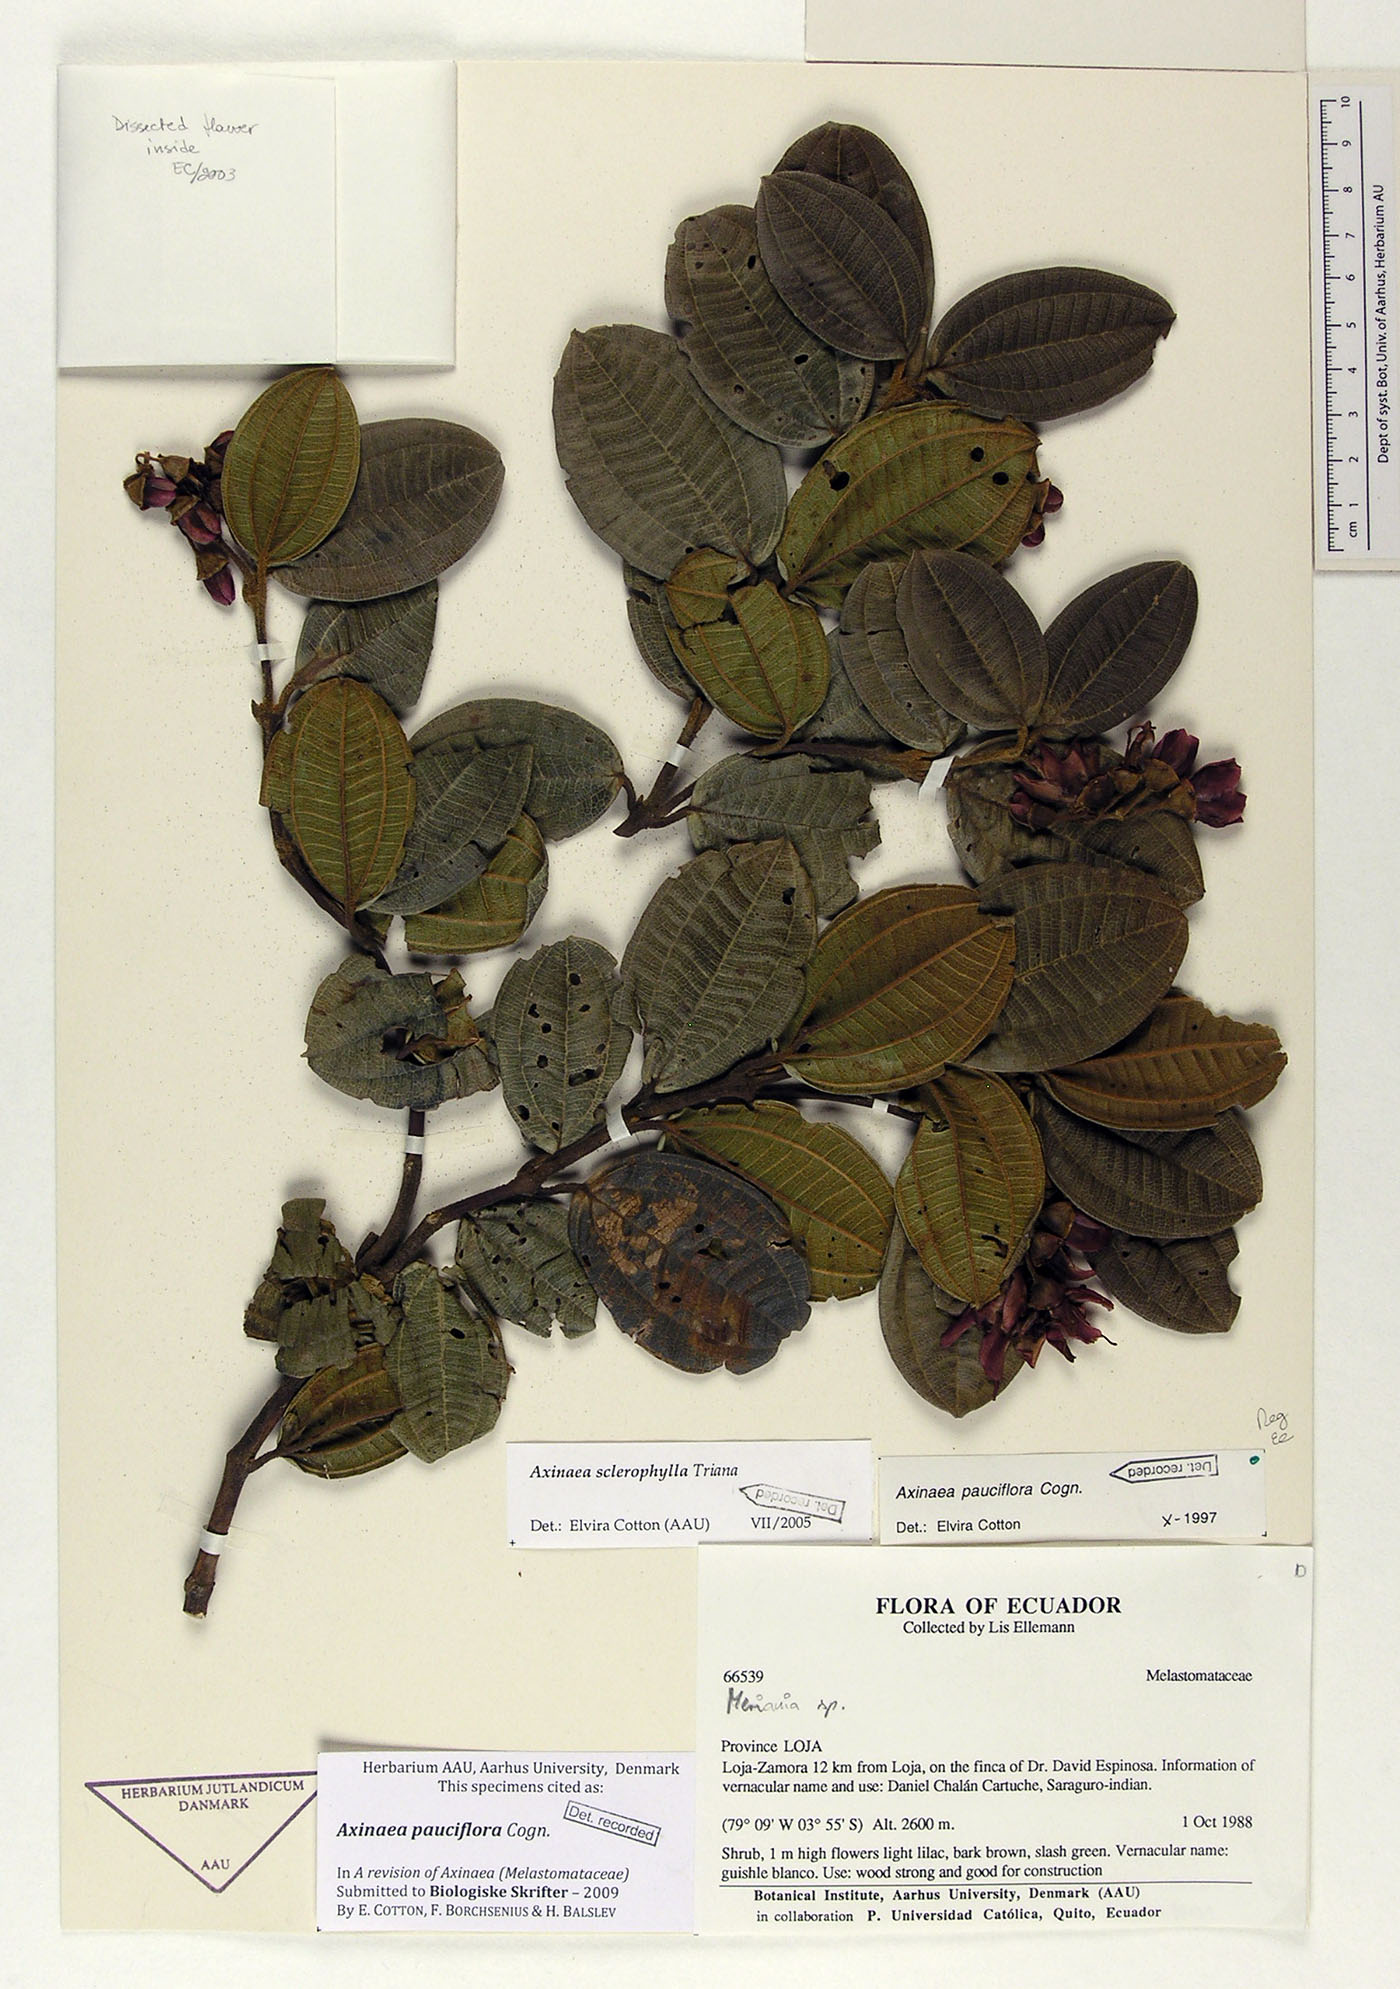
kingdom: Plantae
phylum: Tracheophyta
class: Magnoliopsida
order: Myrtales
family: Melastomataceae
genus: Axinaea
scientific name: Axinaea pauciflora
